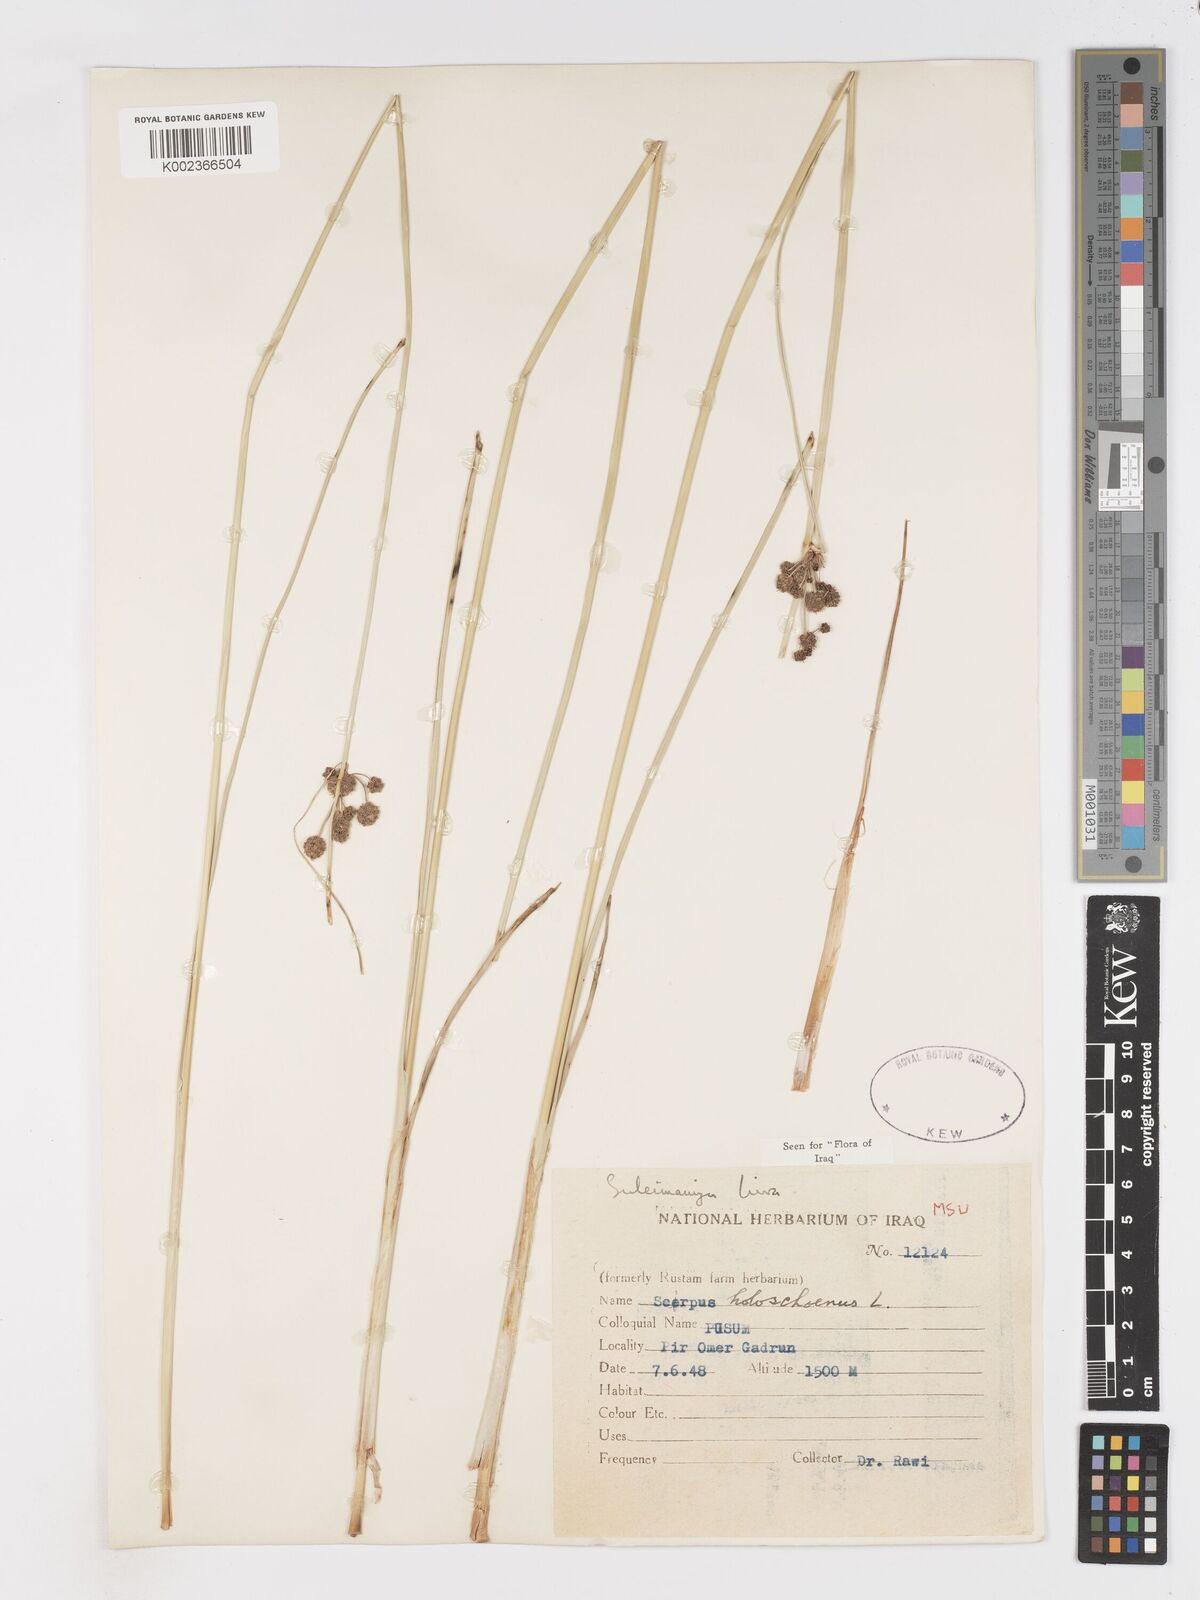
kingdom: Plantae
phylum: Tracheophyta
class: Liliopsida
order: Poales
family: Cyperaceae
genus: Scirpoides
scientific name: Scirpoides holoschoenus
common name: Round-headed club-rush
